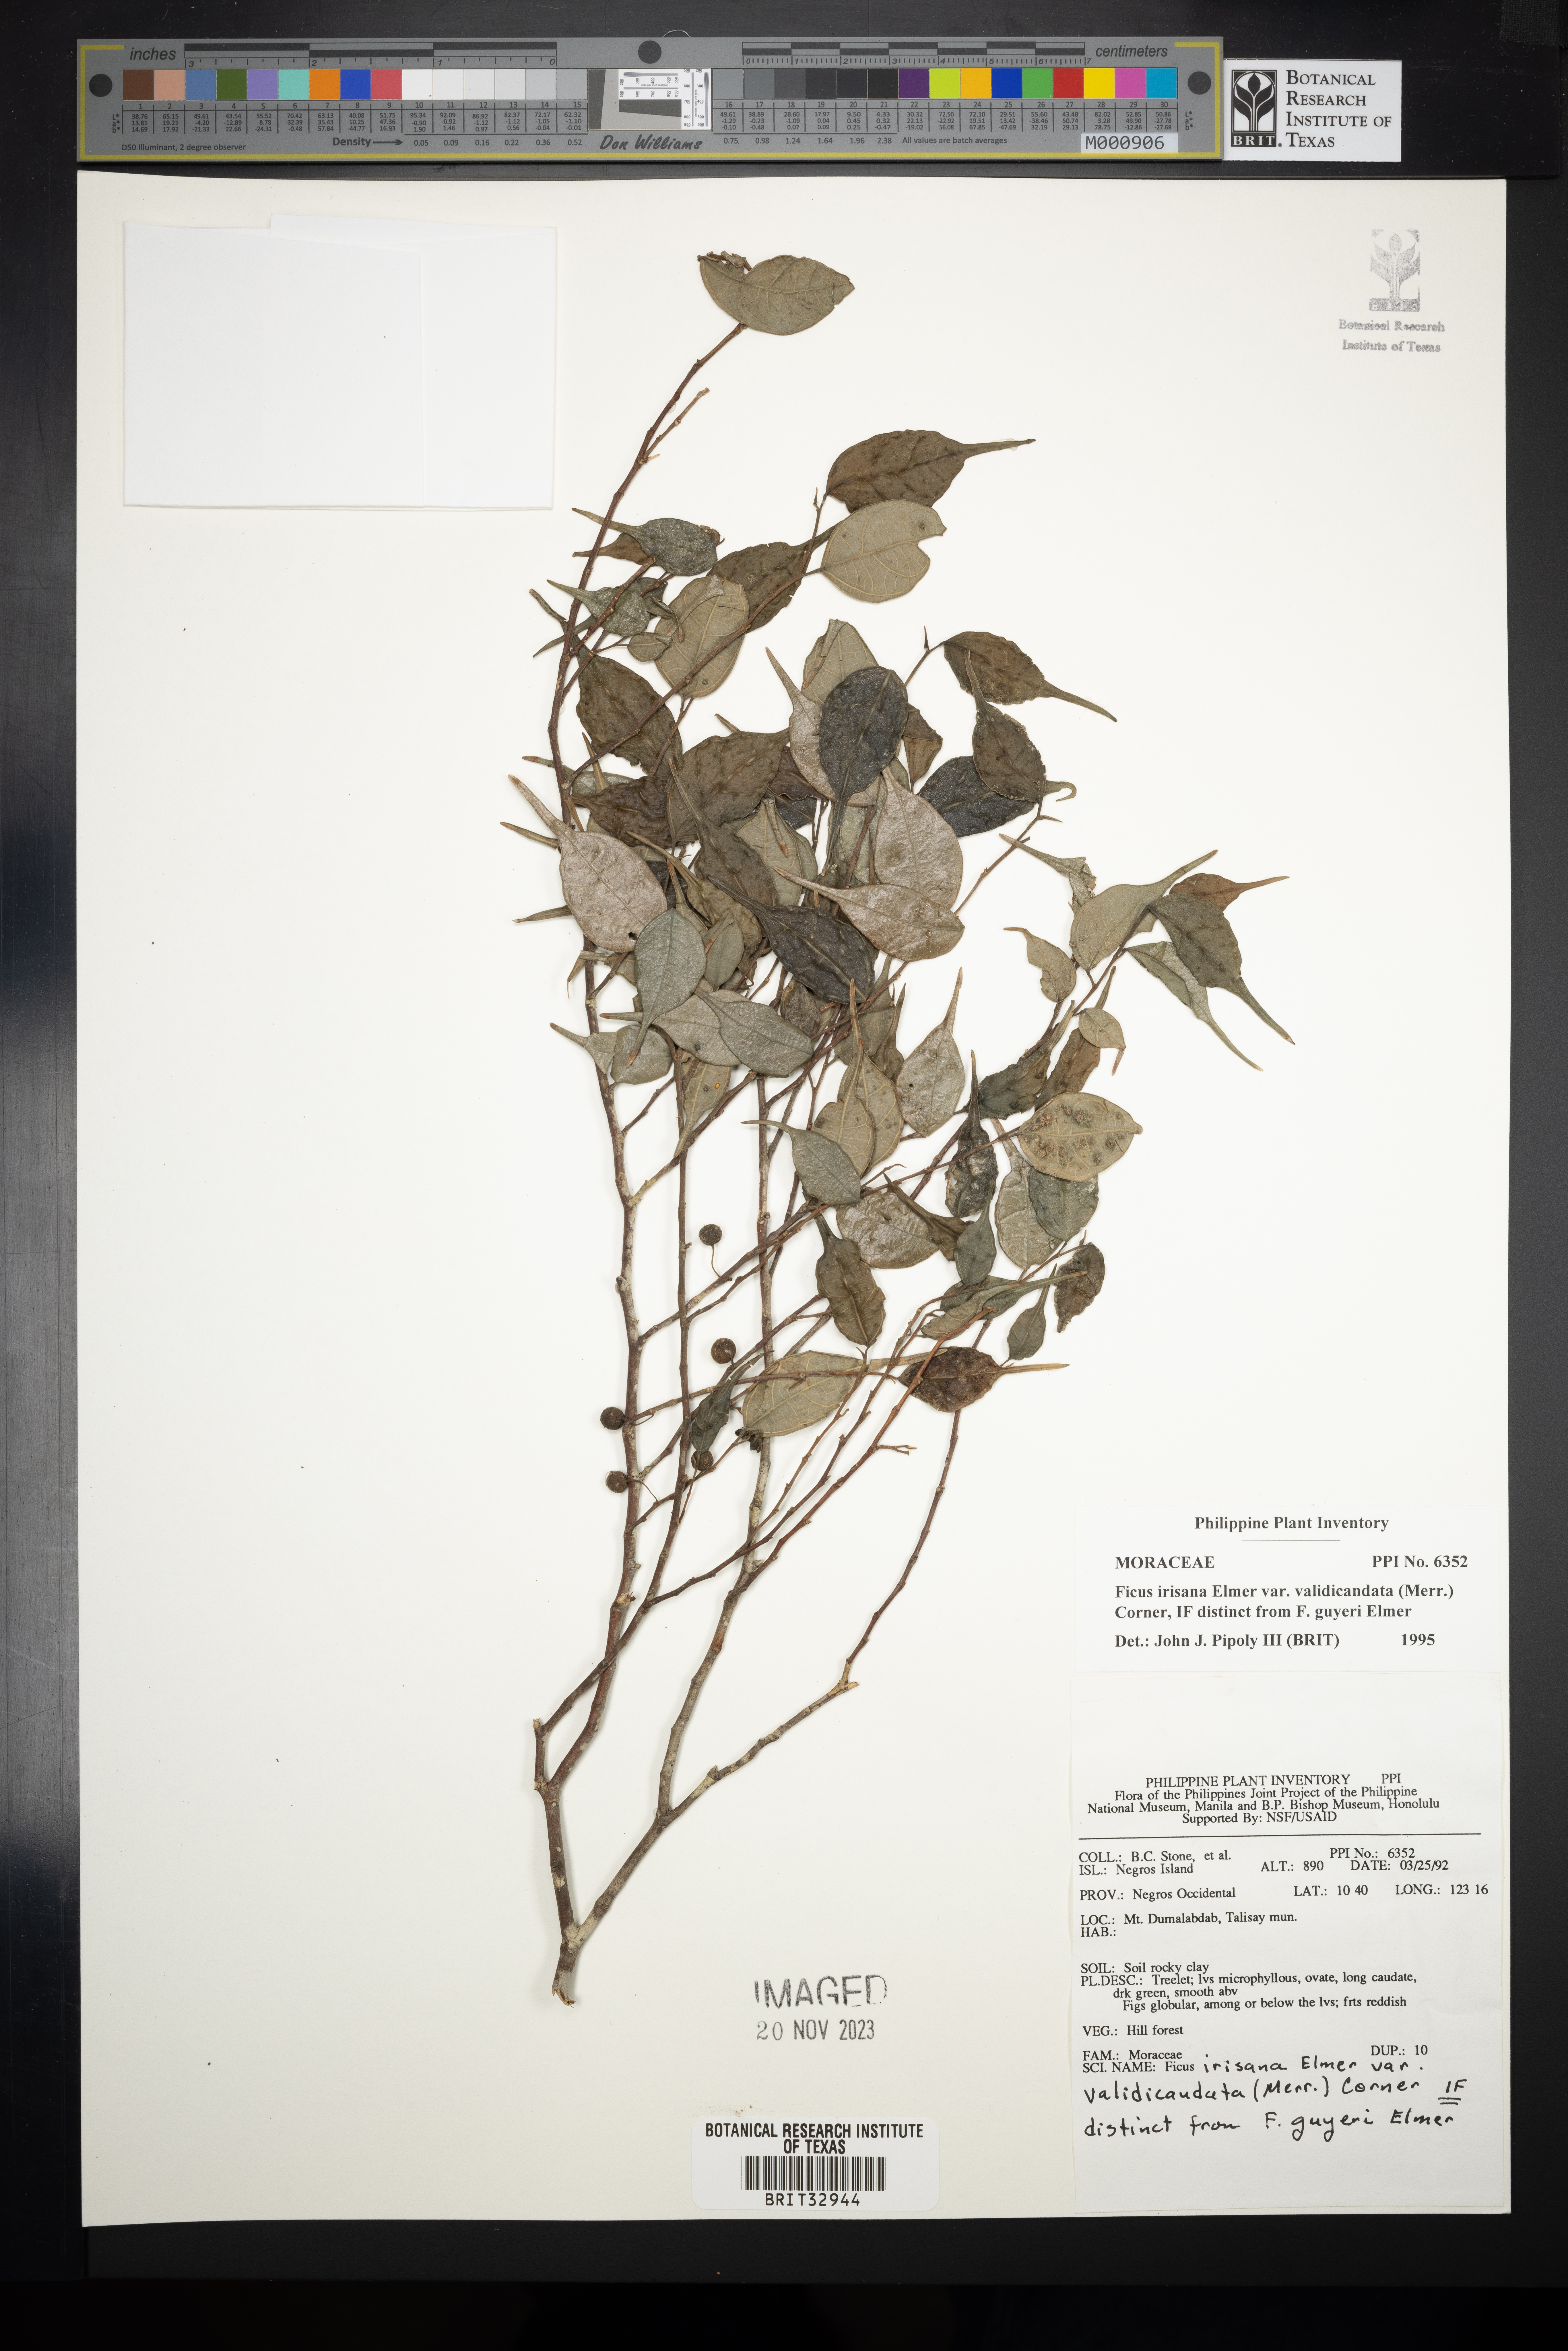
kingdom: Plantae
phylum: Tracheophyta
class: Magnoliopsida
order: Rosales
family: Moraceae
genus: Ficus
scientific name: Ficus ampelos
